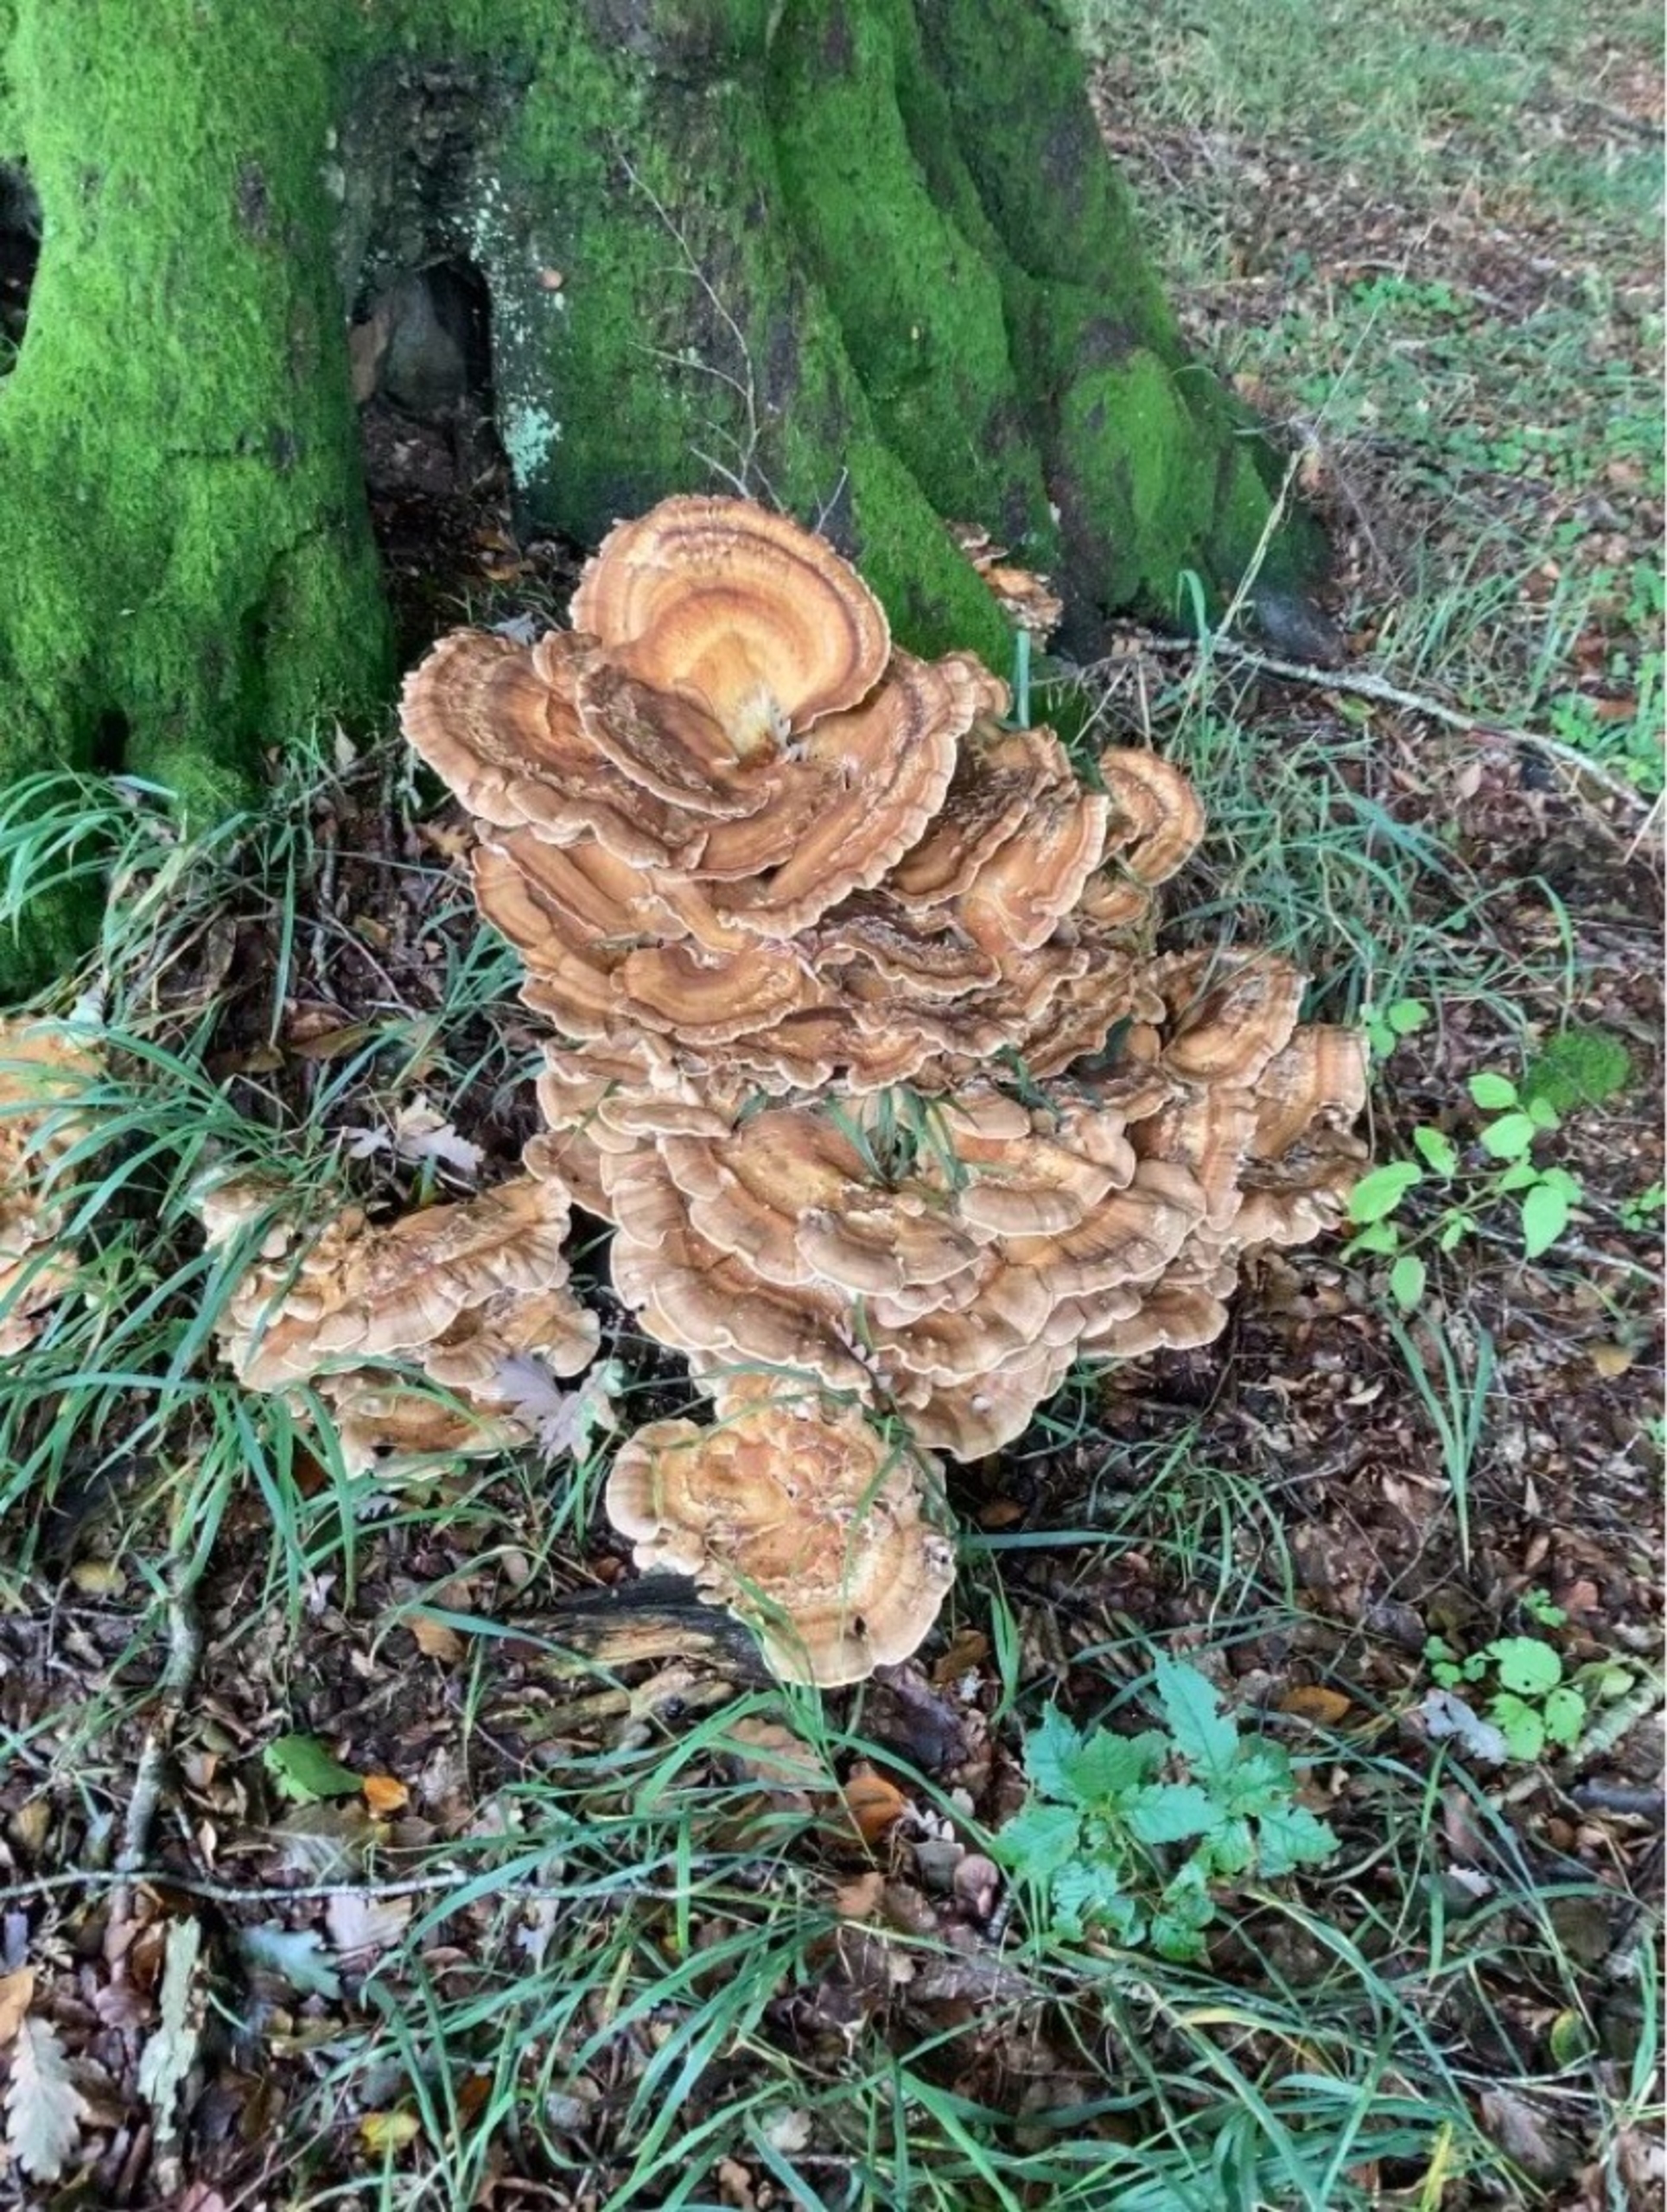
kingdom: Fungi
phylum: Basidiomycota
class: Agaricomycetes
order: Polyporales
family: Meripilaceae
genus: Meripilus
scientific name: Meripilus giganteus
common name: Kæmpeporesvamp
